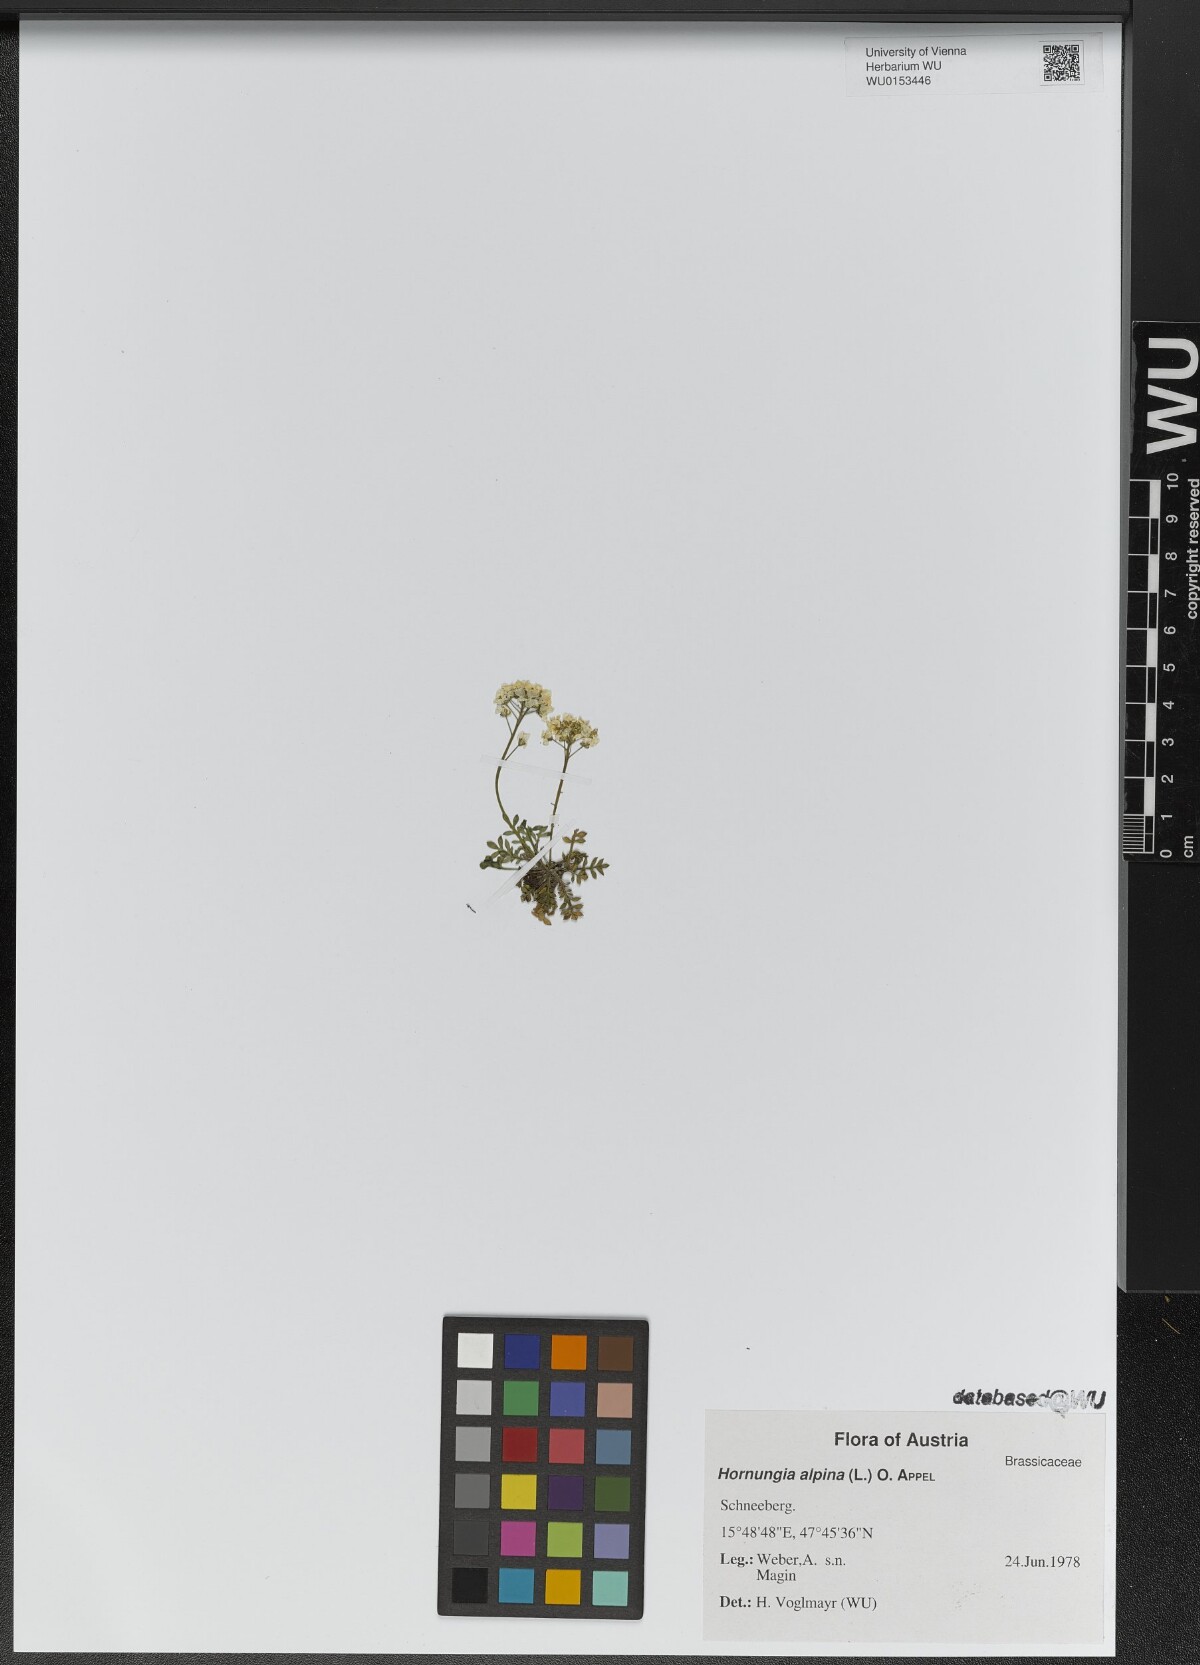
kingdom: Plantae
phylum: Tracheophyta
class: Magnoliopsida
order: Brassicales
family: Brassicaceae
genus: Hornungia
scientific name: Hornungia alpina
